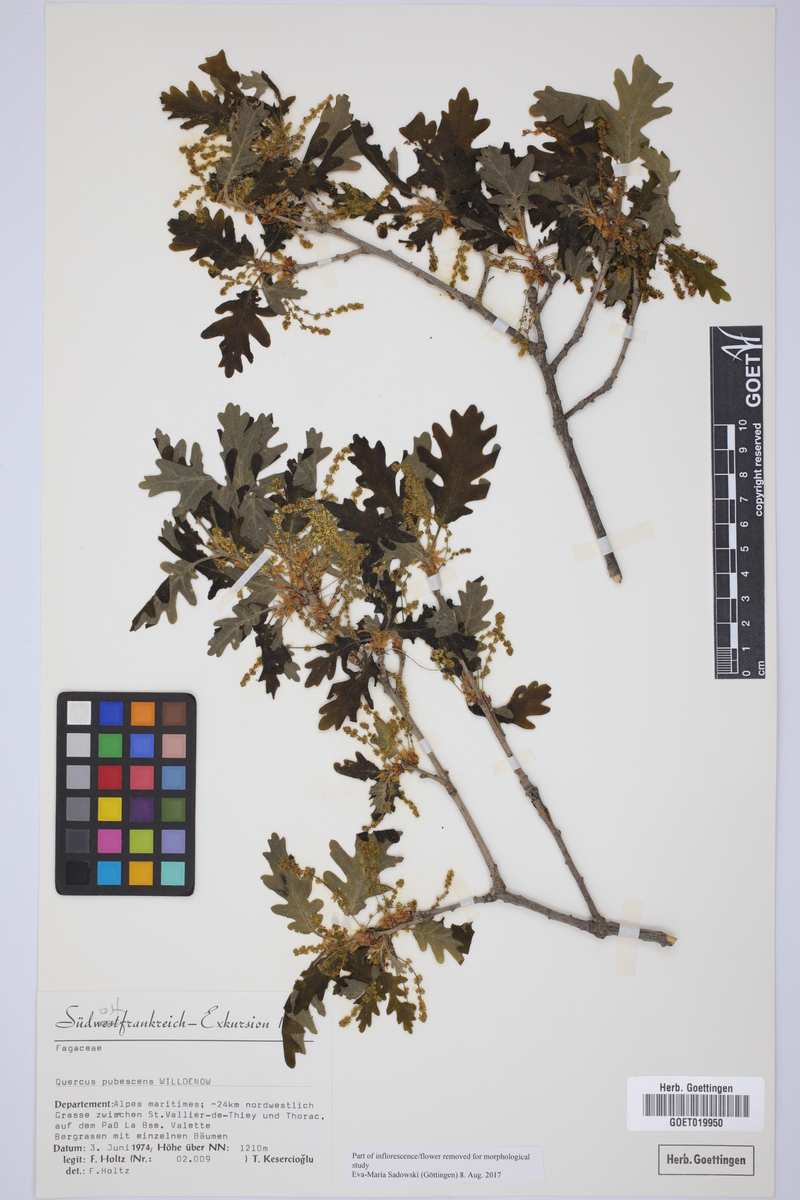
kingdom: Plantae
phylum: Tracheophyta
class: Magnoliopsida
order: Fagales
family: Fagaceae
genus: Quercus
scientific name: Quercus pubescens
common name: Downy oak
